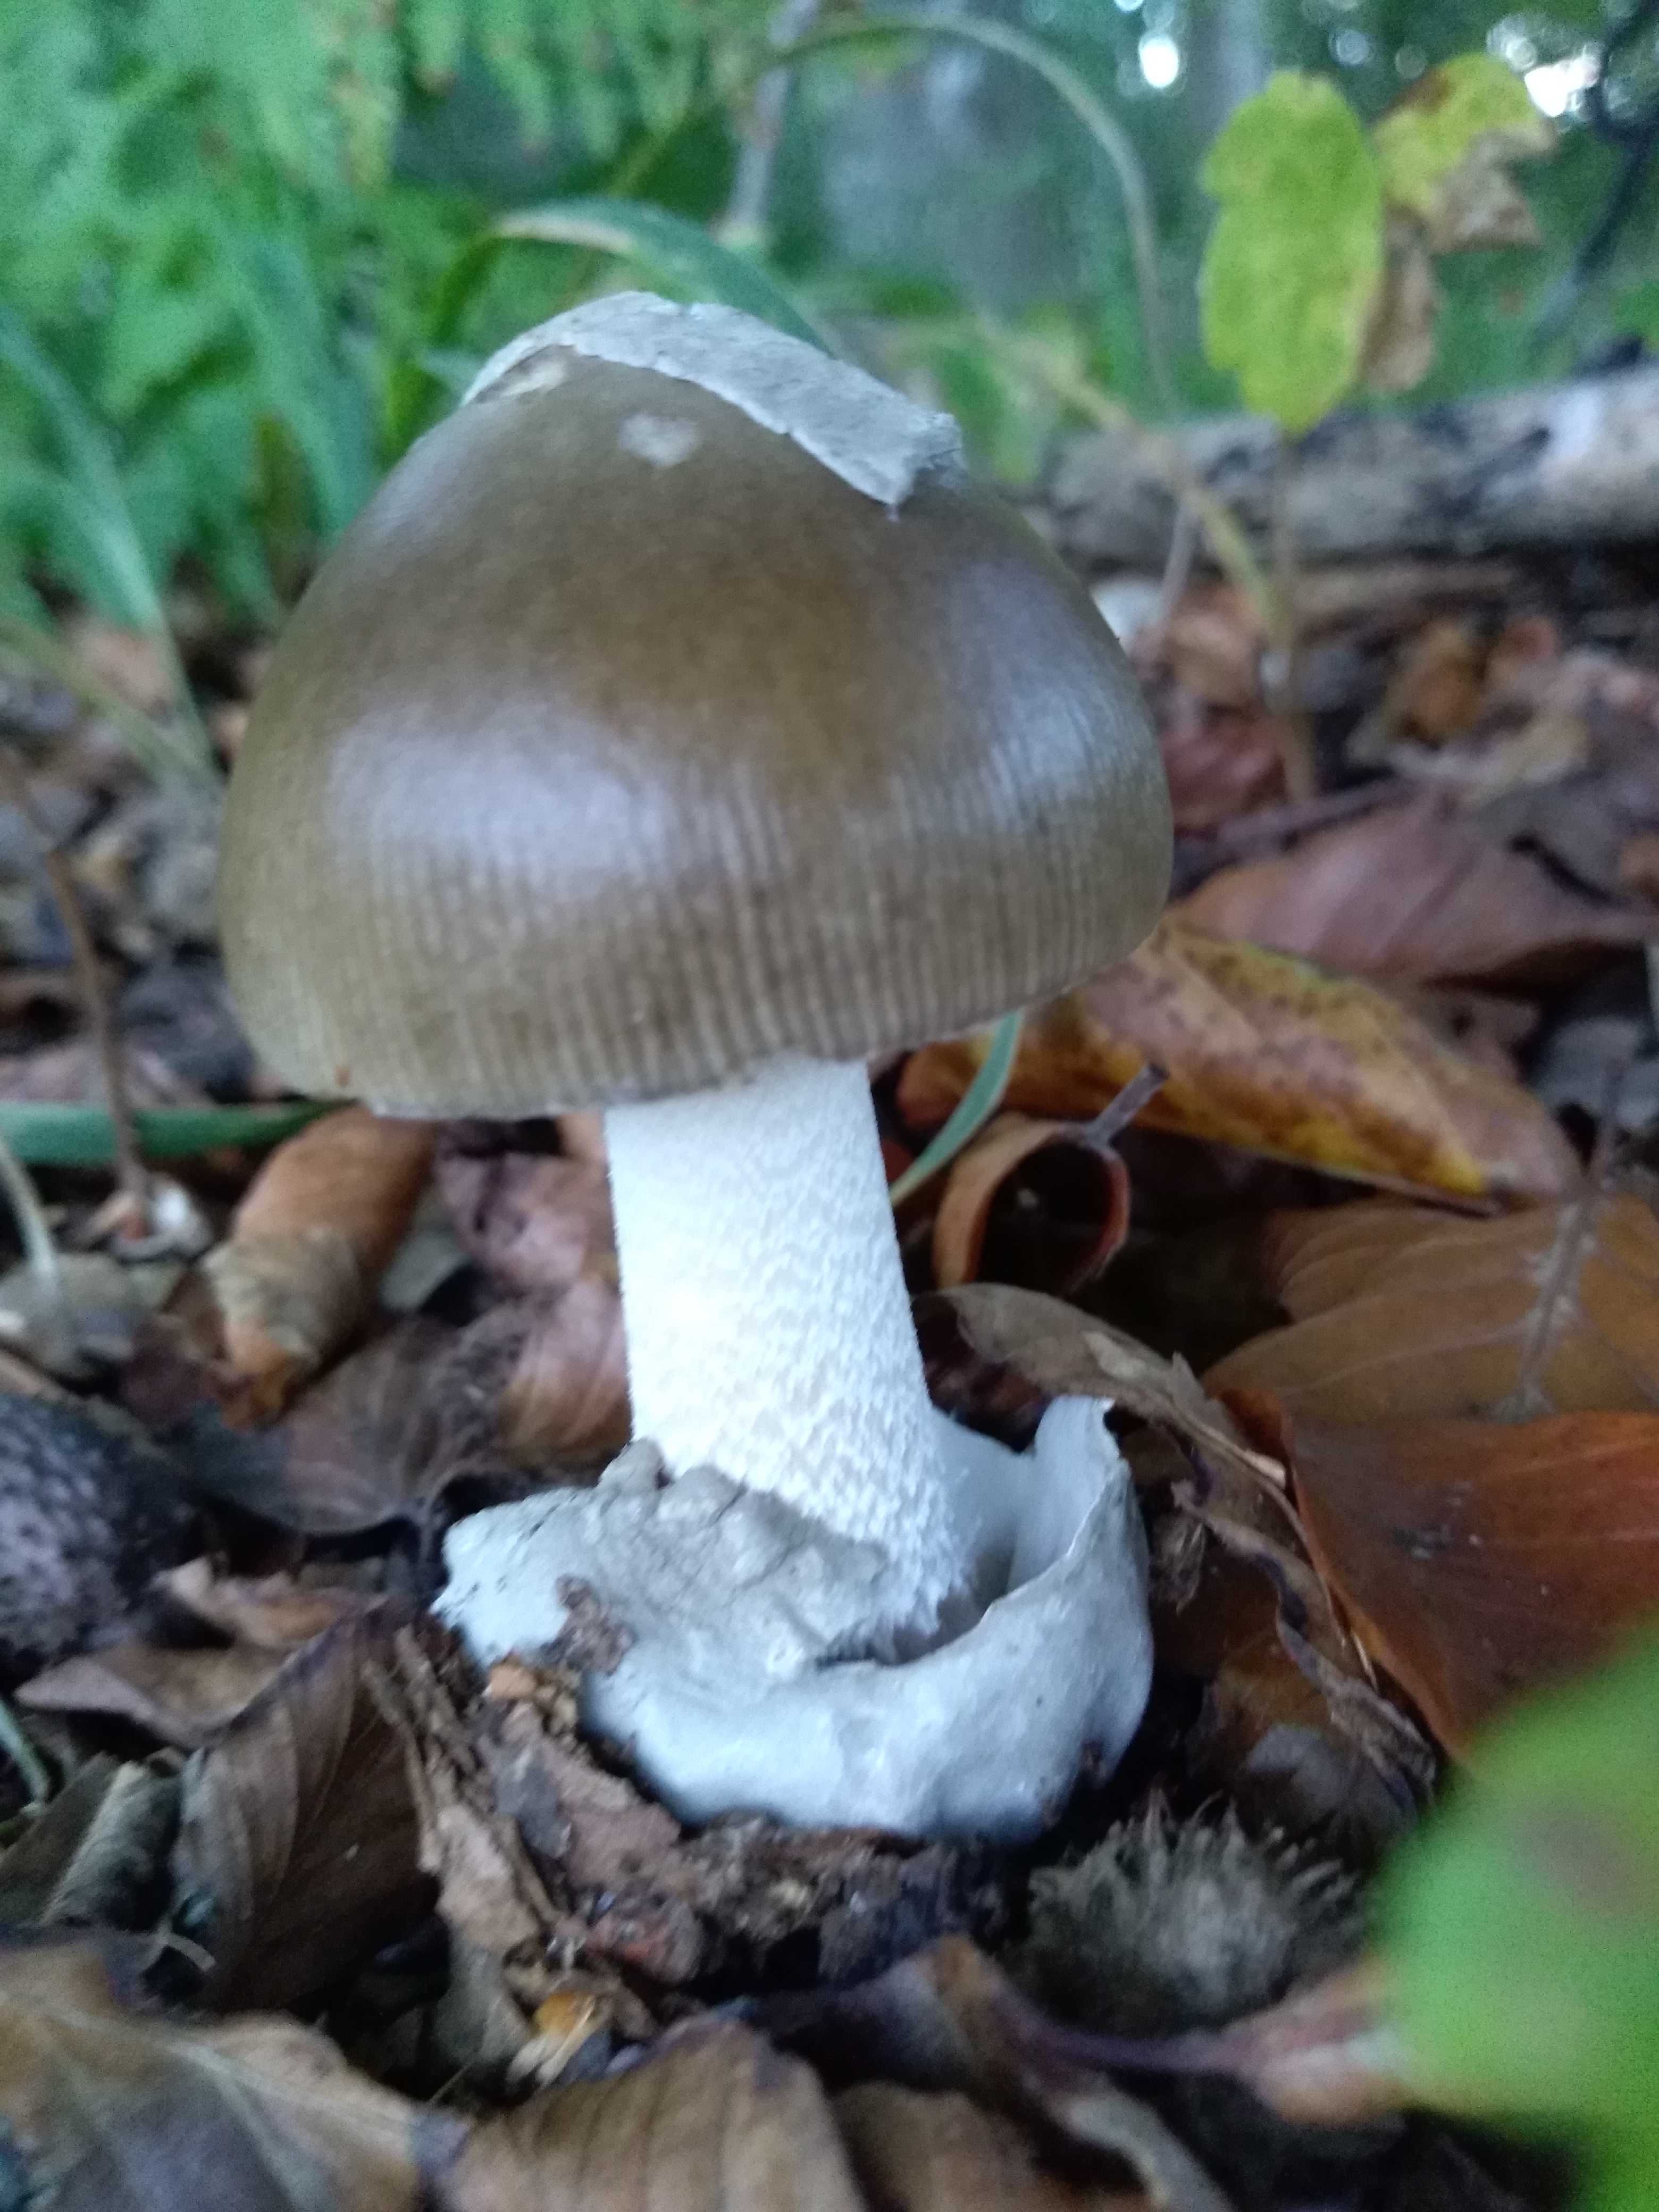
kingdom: Fungi
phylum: Basidiomycota
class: Agaricomycetes
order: Agaricales
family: Amanitaceae
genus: Amanita
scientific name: Amanita vaginata
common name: grå kam-fluesvamp
